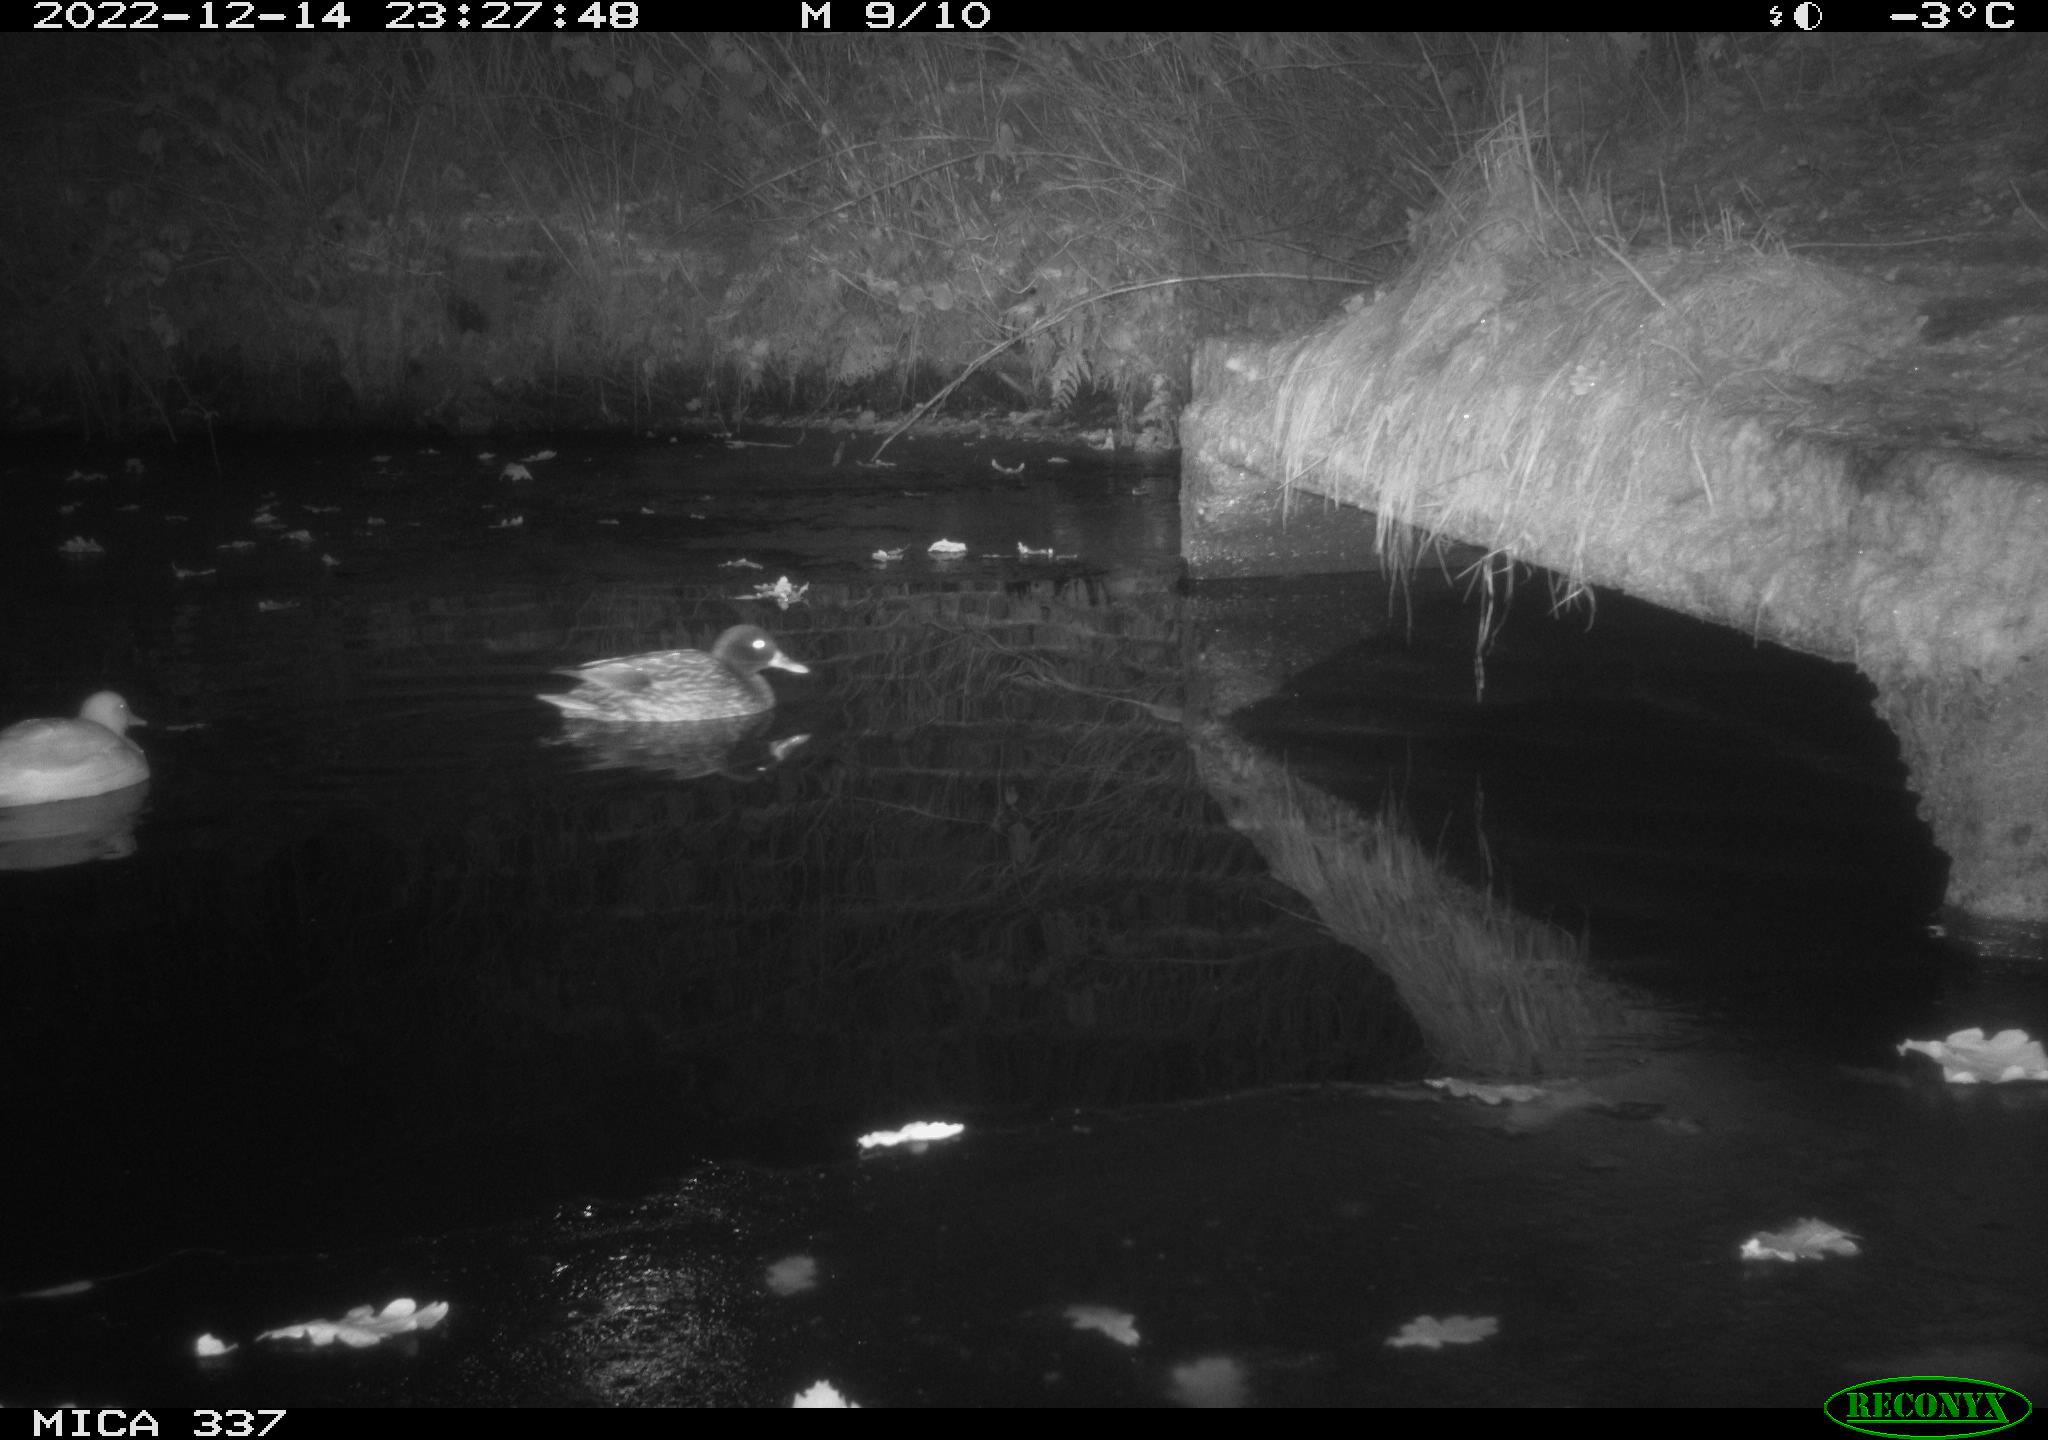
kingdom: Animalia
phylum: Chordata
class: Aves
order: Anseriformes
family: Anatidae
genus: Anas
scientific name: Anas
